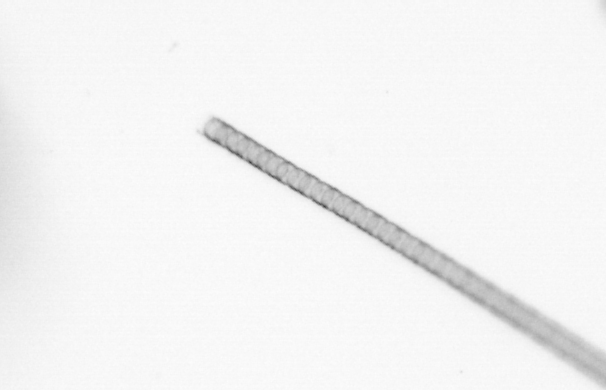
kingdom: Chromista
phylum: Ochrophyta
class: Bacillariophyceae
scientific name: Bacillariophyceae
